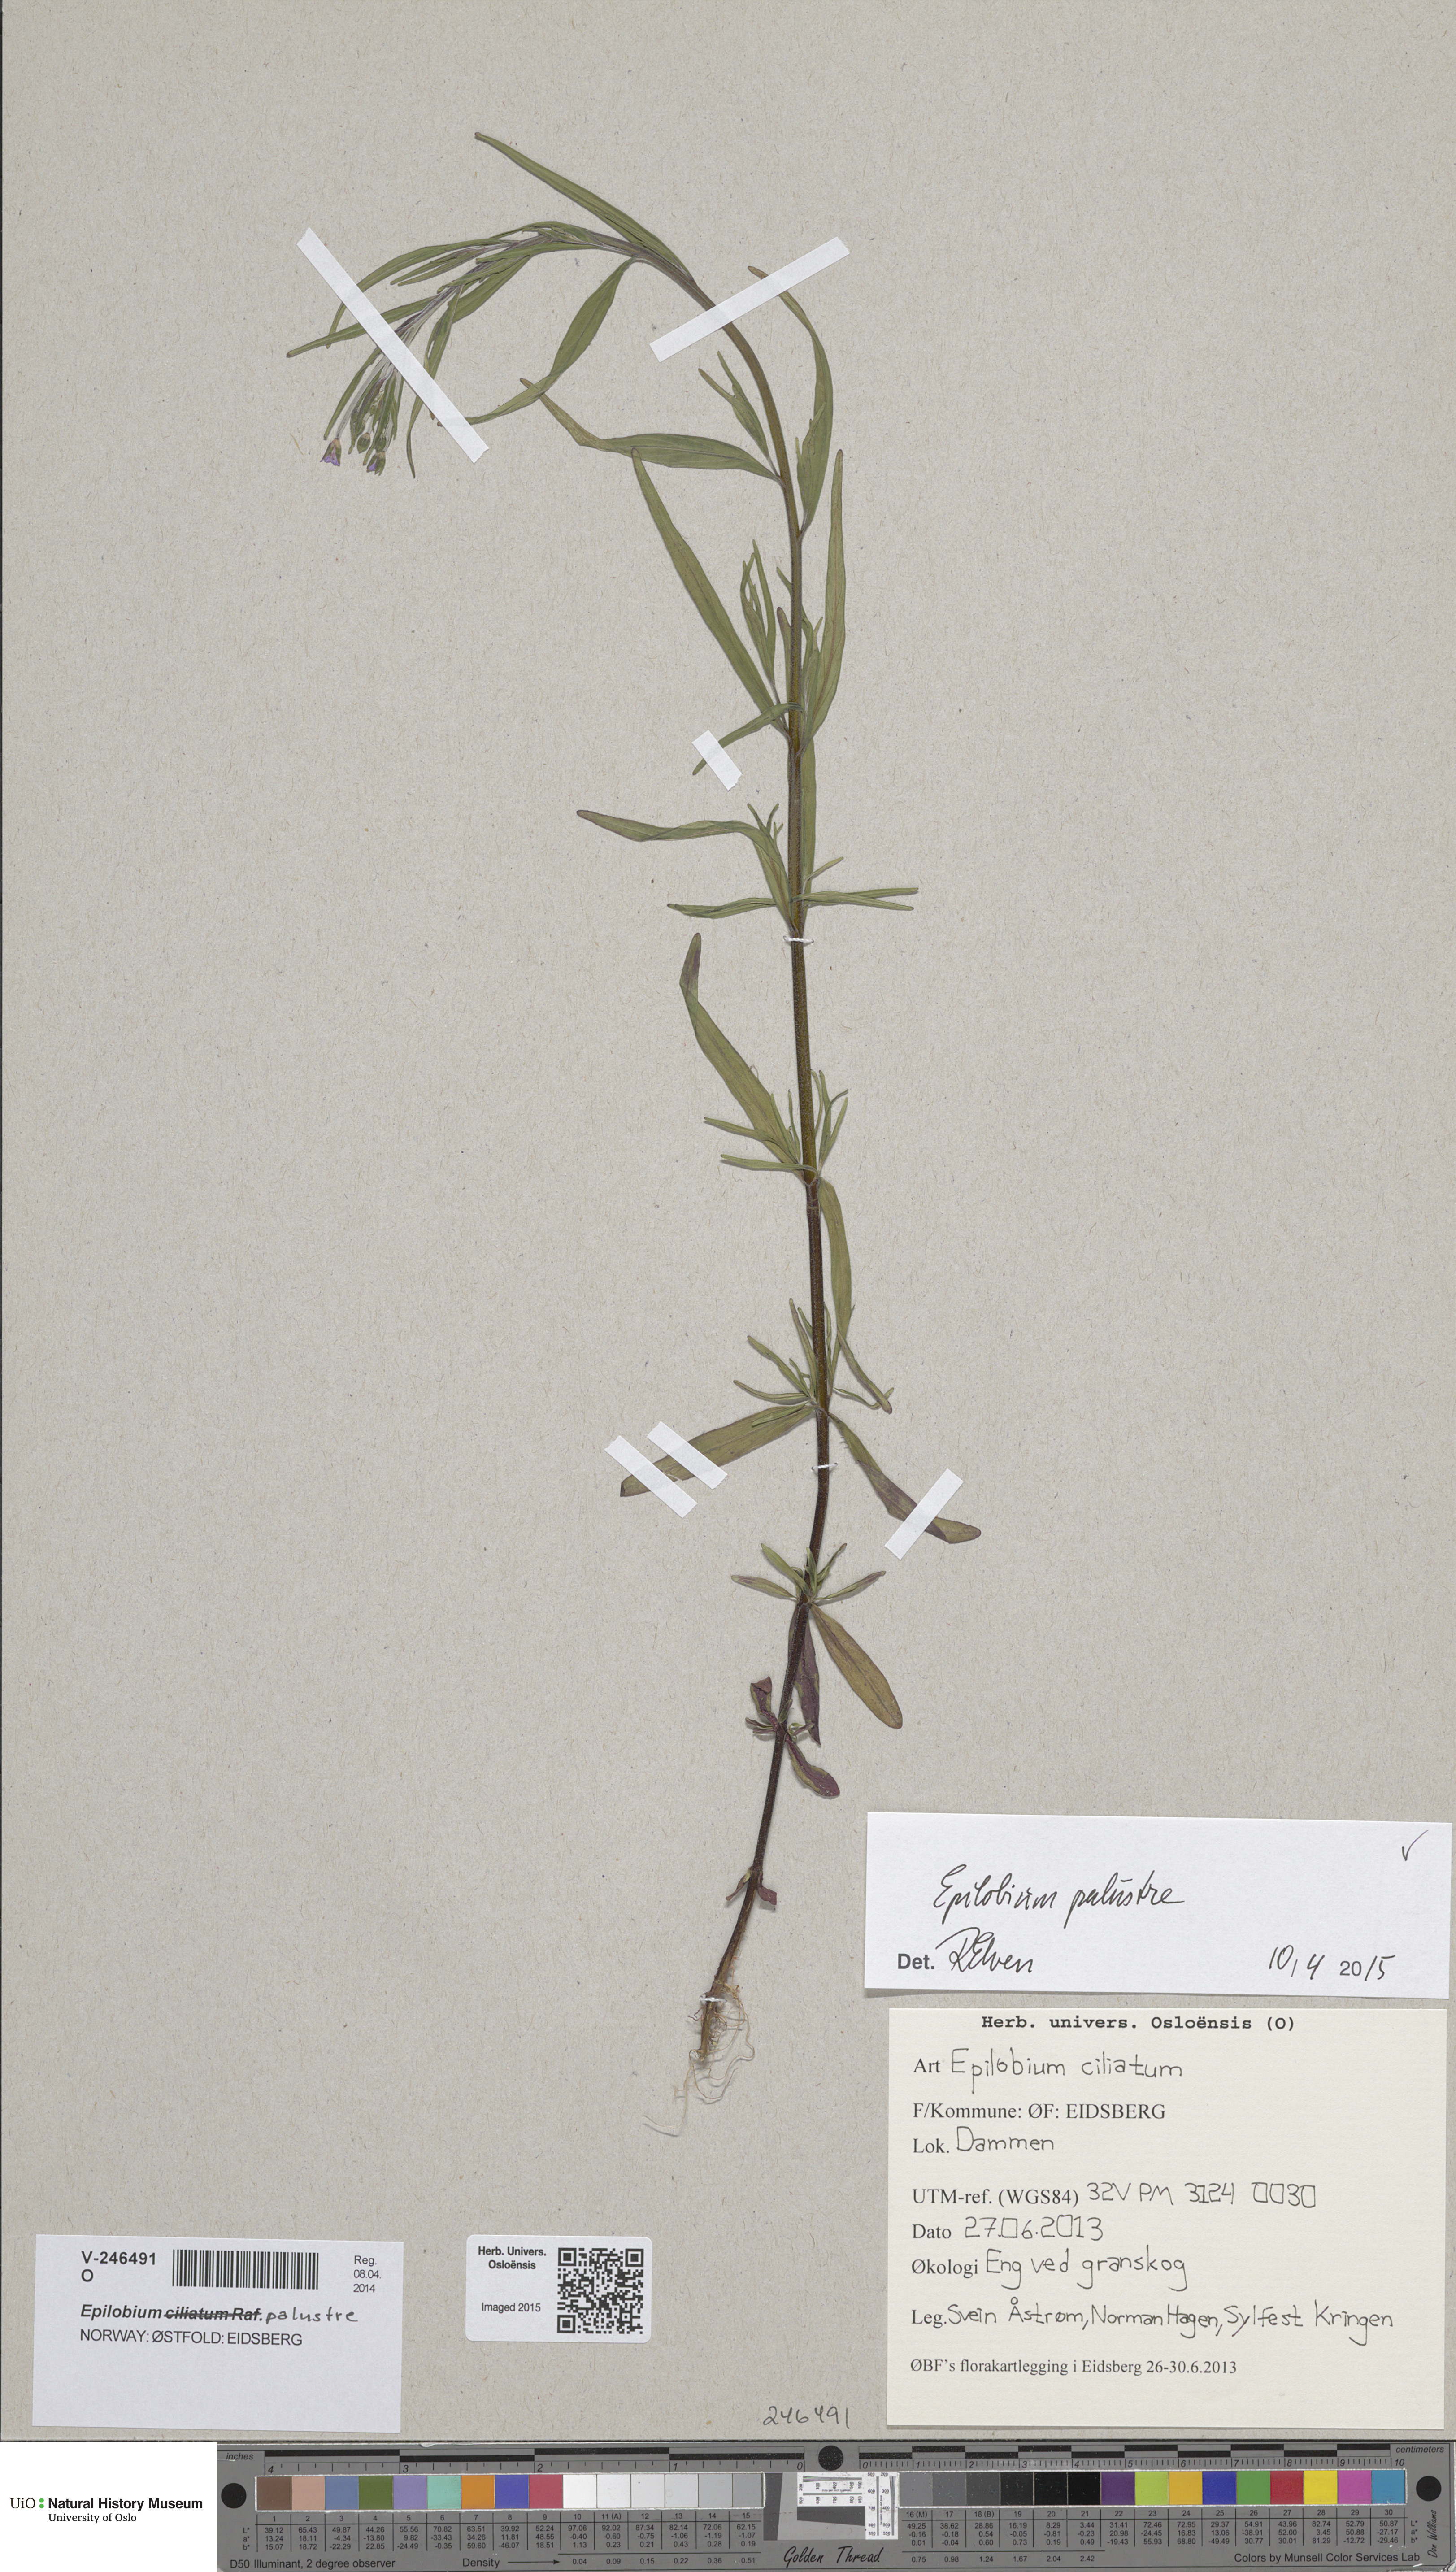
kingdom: Plantae
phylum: Tracheophyta
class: Magnoliopsida
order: Myrtales
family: Onagraceae
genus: Epilobium
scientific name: Epilobium palustre
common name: Marsh willowherb
